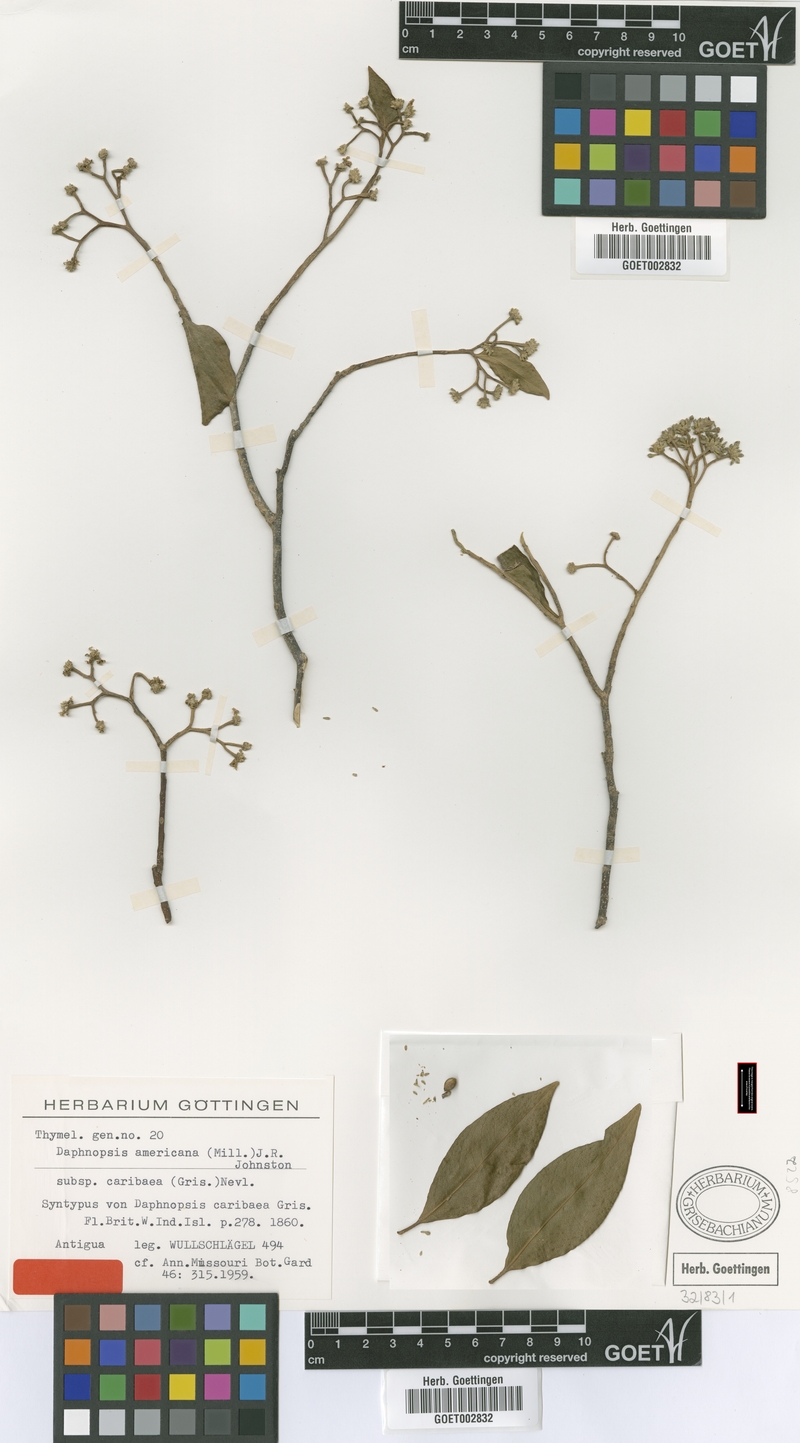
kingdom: Plantae
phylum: Tracheophyta
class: Magnoliopsida
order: Malvales
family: Thymelaeaceae
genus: Daphnopsis
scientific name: Daphnopsis americana
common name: Maho
